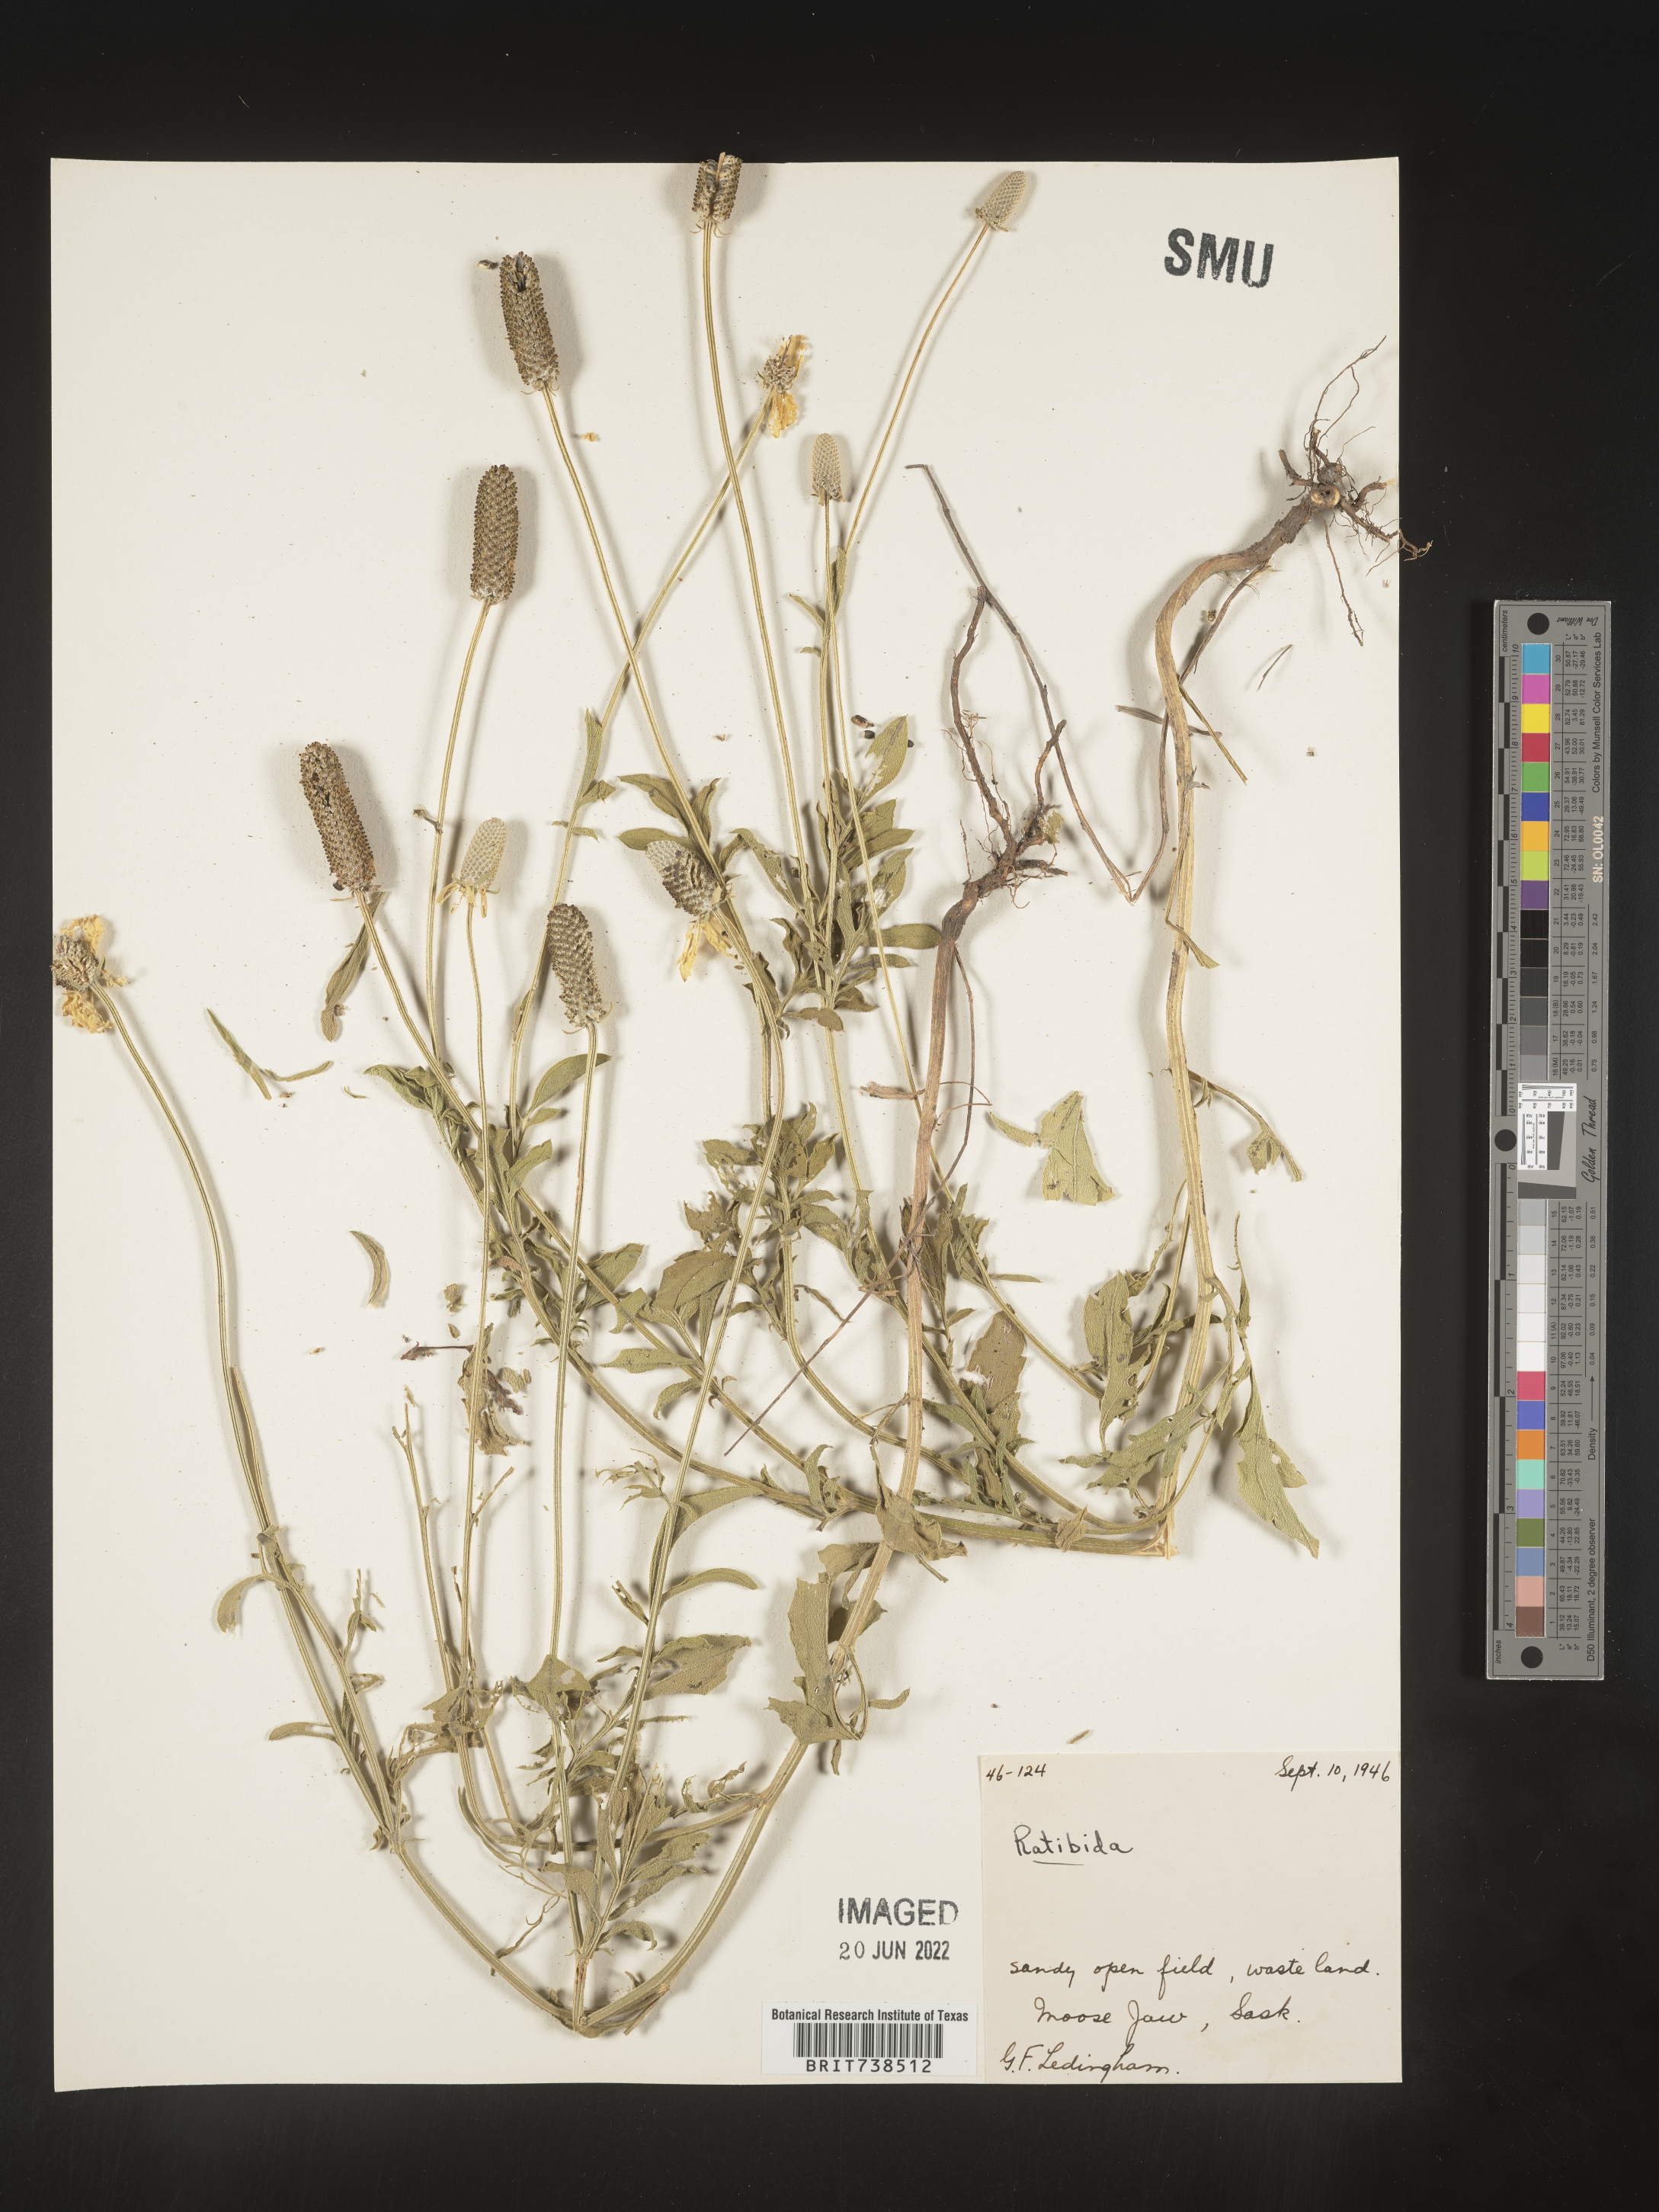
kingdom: Plantae
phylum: Tracheophyta
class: Magnoliopsida
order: Asterales
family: Asteraceae
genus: Ratibida
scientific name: Ratibida columnifera
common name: Prairie coneflower
